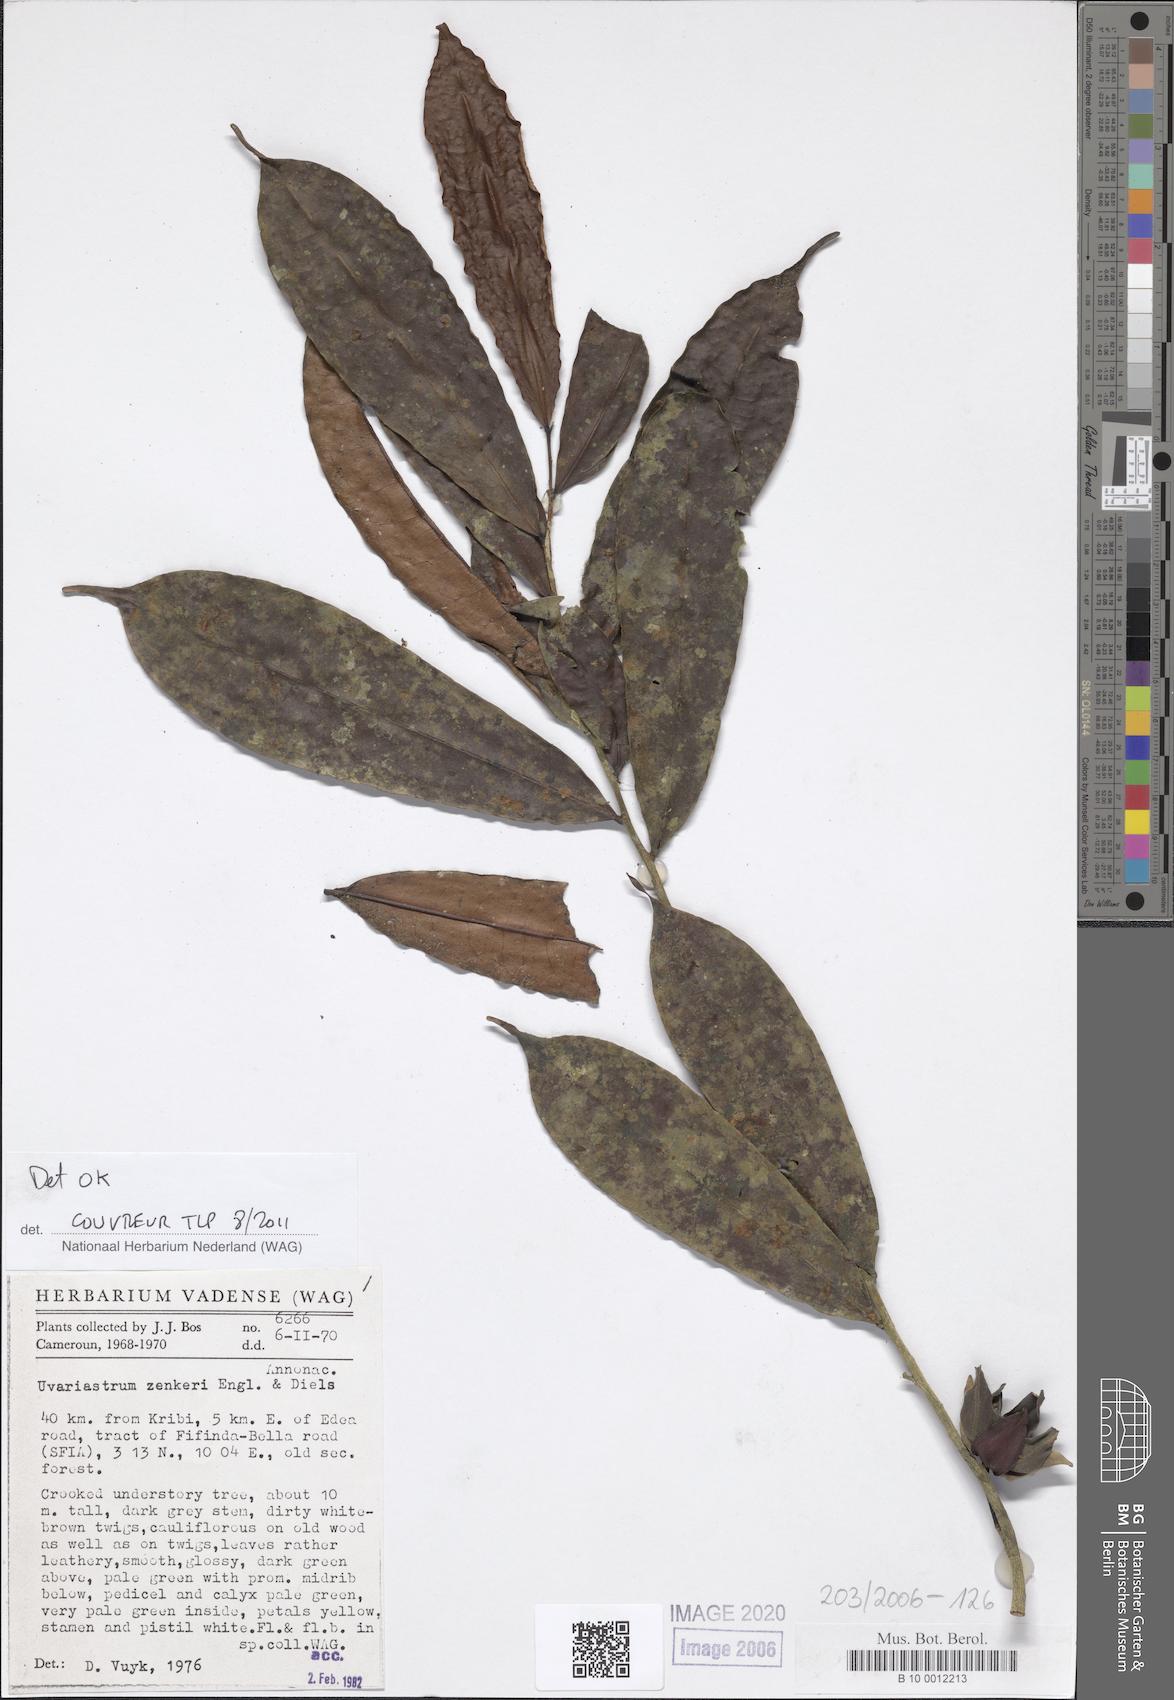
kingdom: Plantae
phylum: Tracheophyta
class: Magnoliopsida
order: Magnoliales
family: Annonaceae
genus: Uvariastrum
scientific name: Uvariastrum zenkeri
